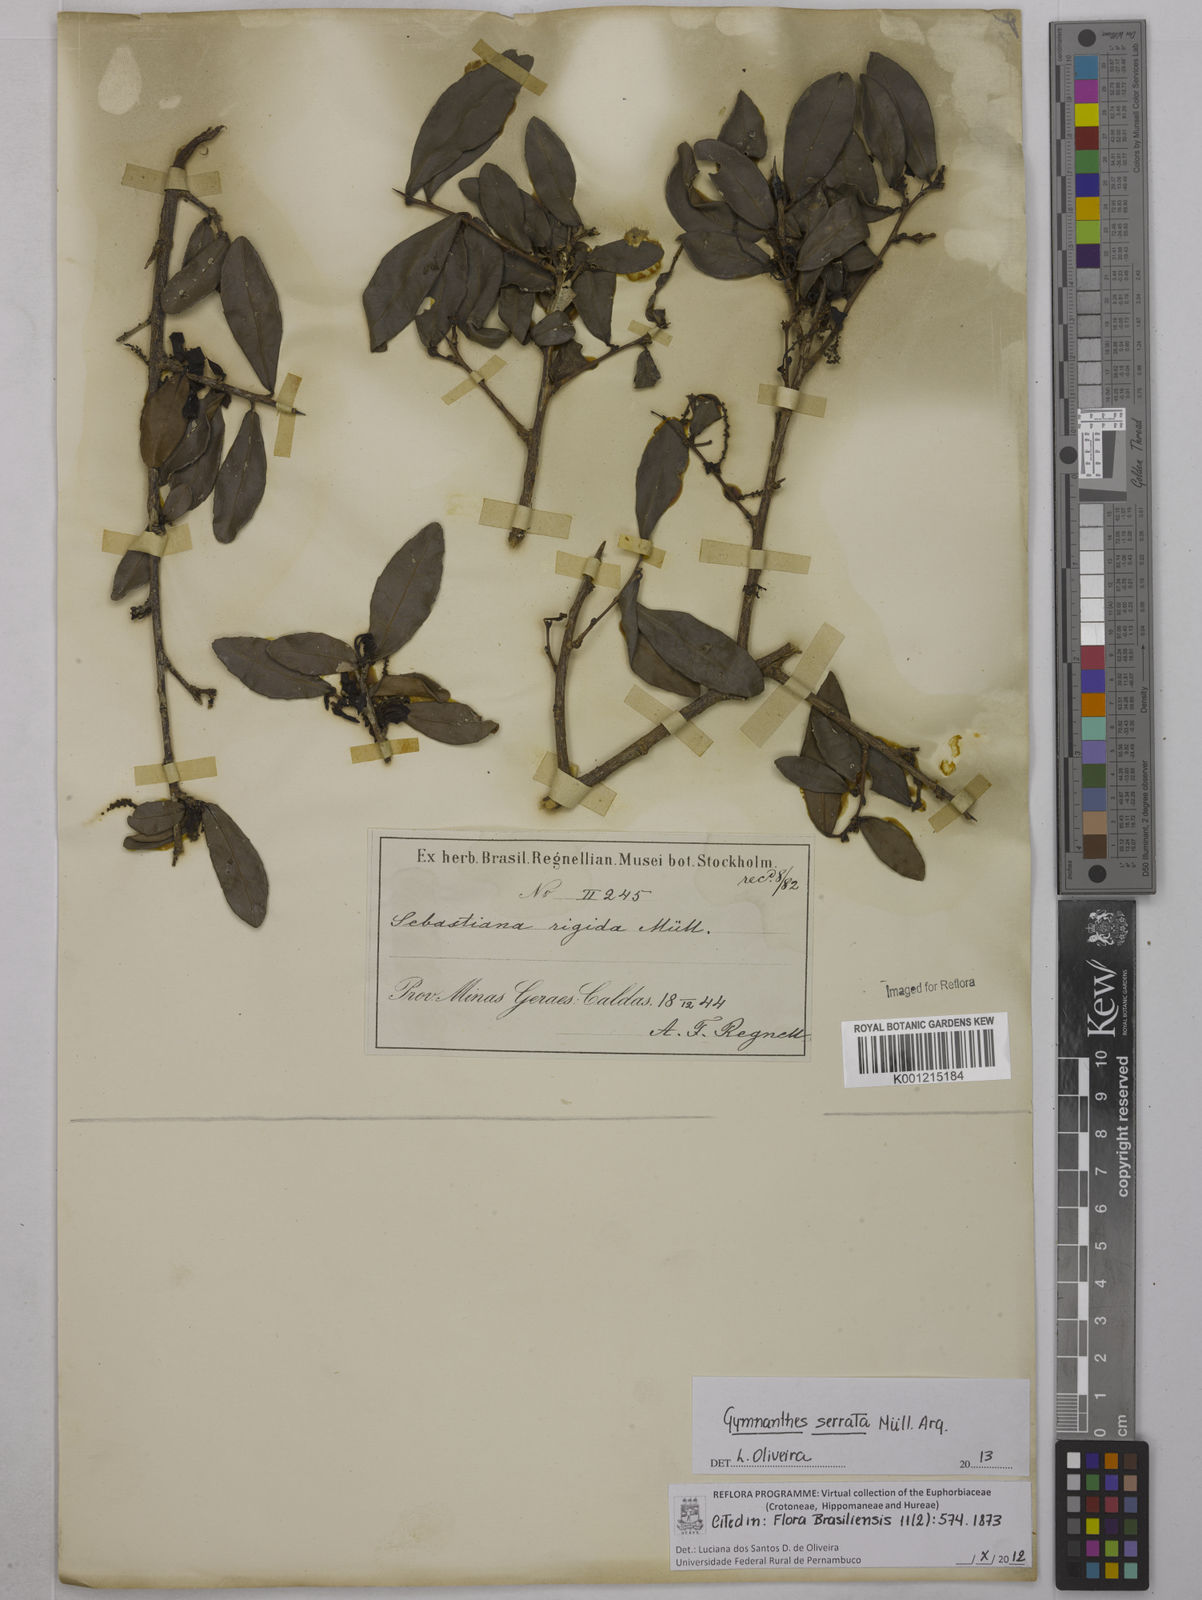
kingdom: Plantae
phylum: Tracheophyta
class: Magnoliopsida
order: Malpighiales
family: Euphorbiaceae
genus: Gymnanthes
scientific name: Gymnanthes
